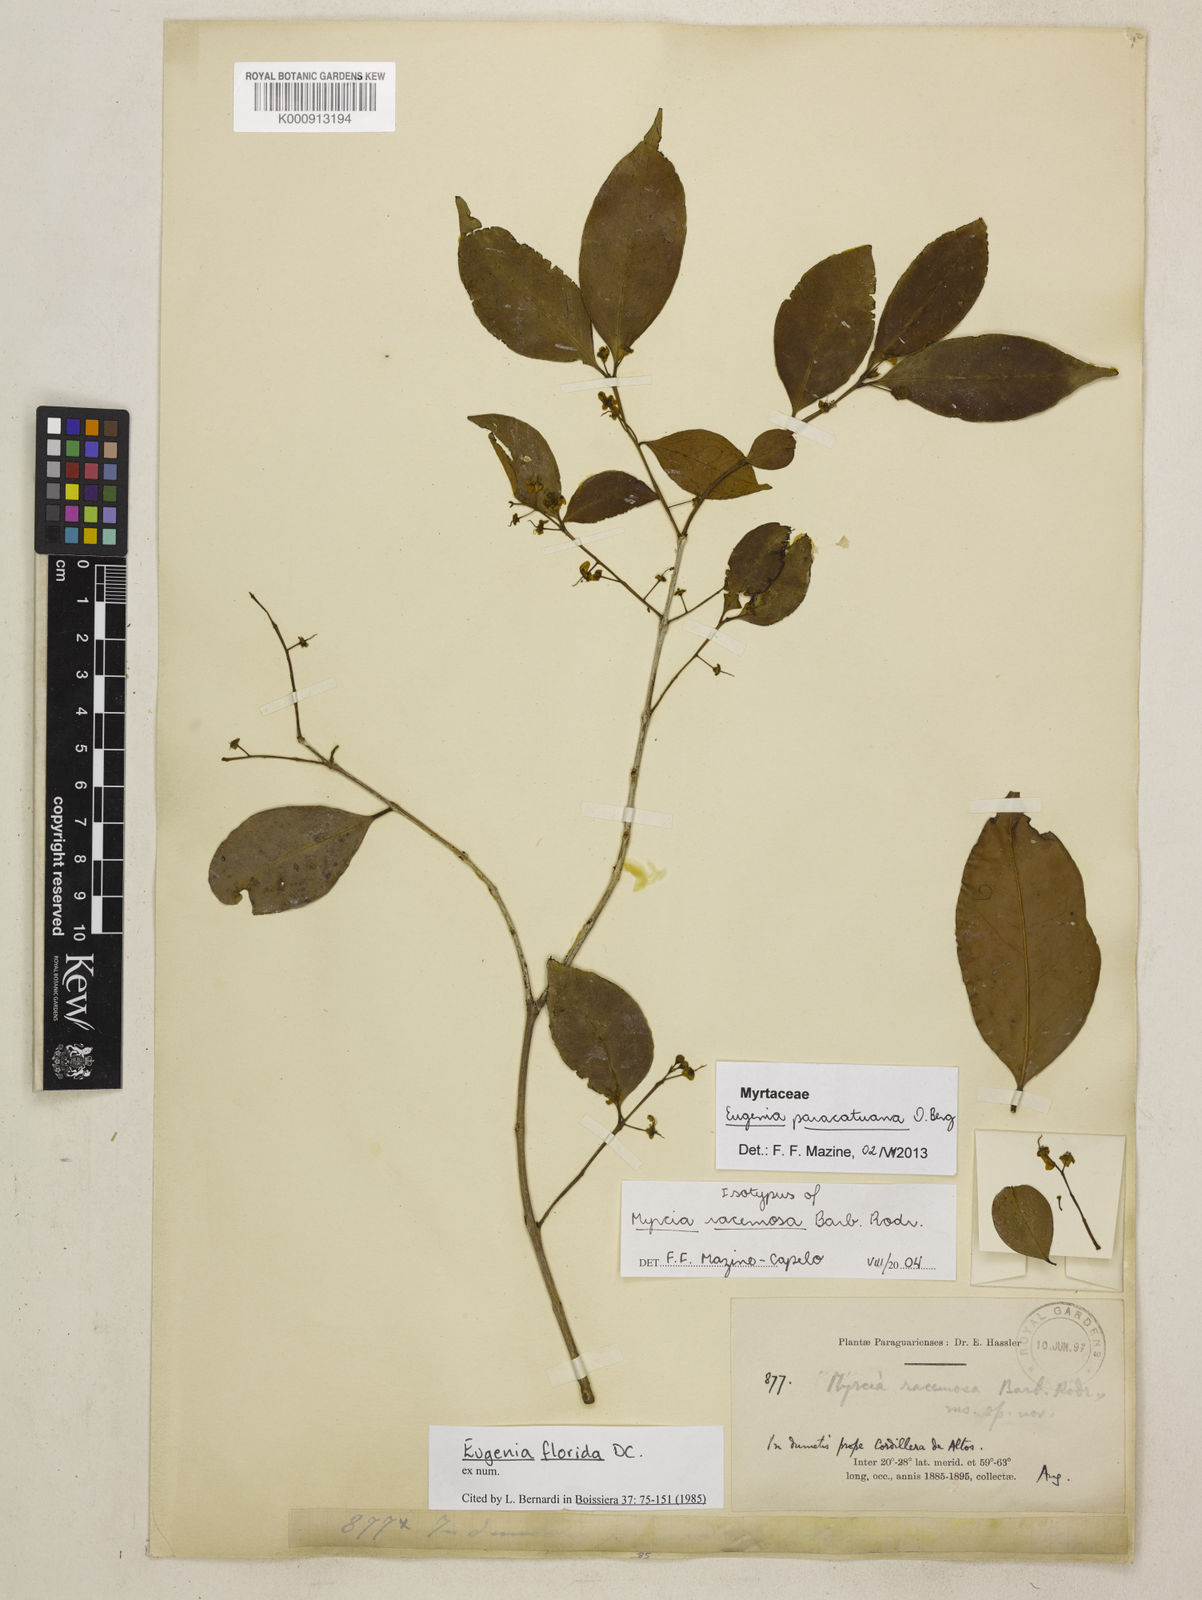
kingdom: Plantae
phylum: Tracheophyta
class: Magnoliopsida
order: Myrtales
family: Myrtaceae
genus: Eugenia
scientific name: Eugenia moraviana
